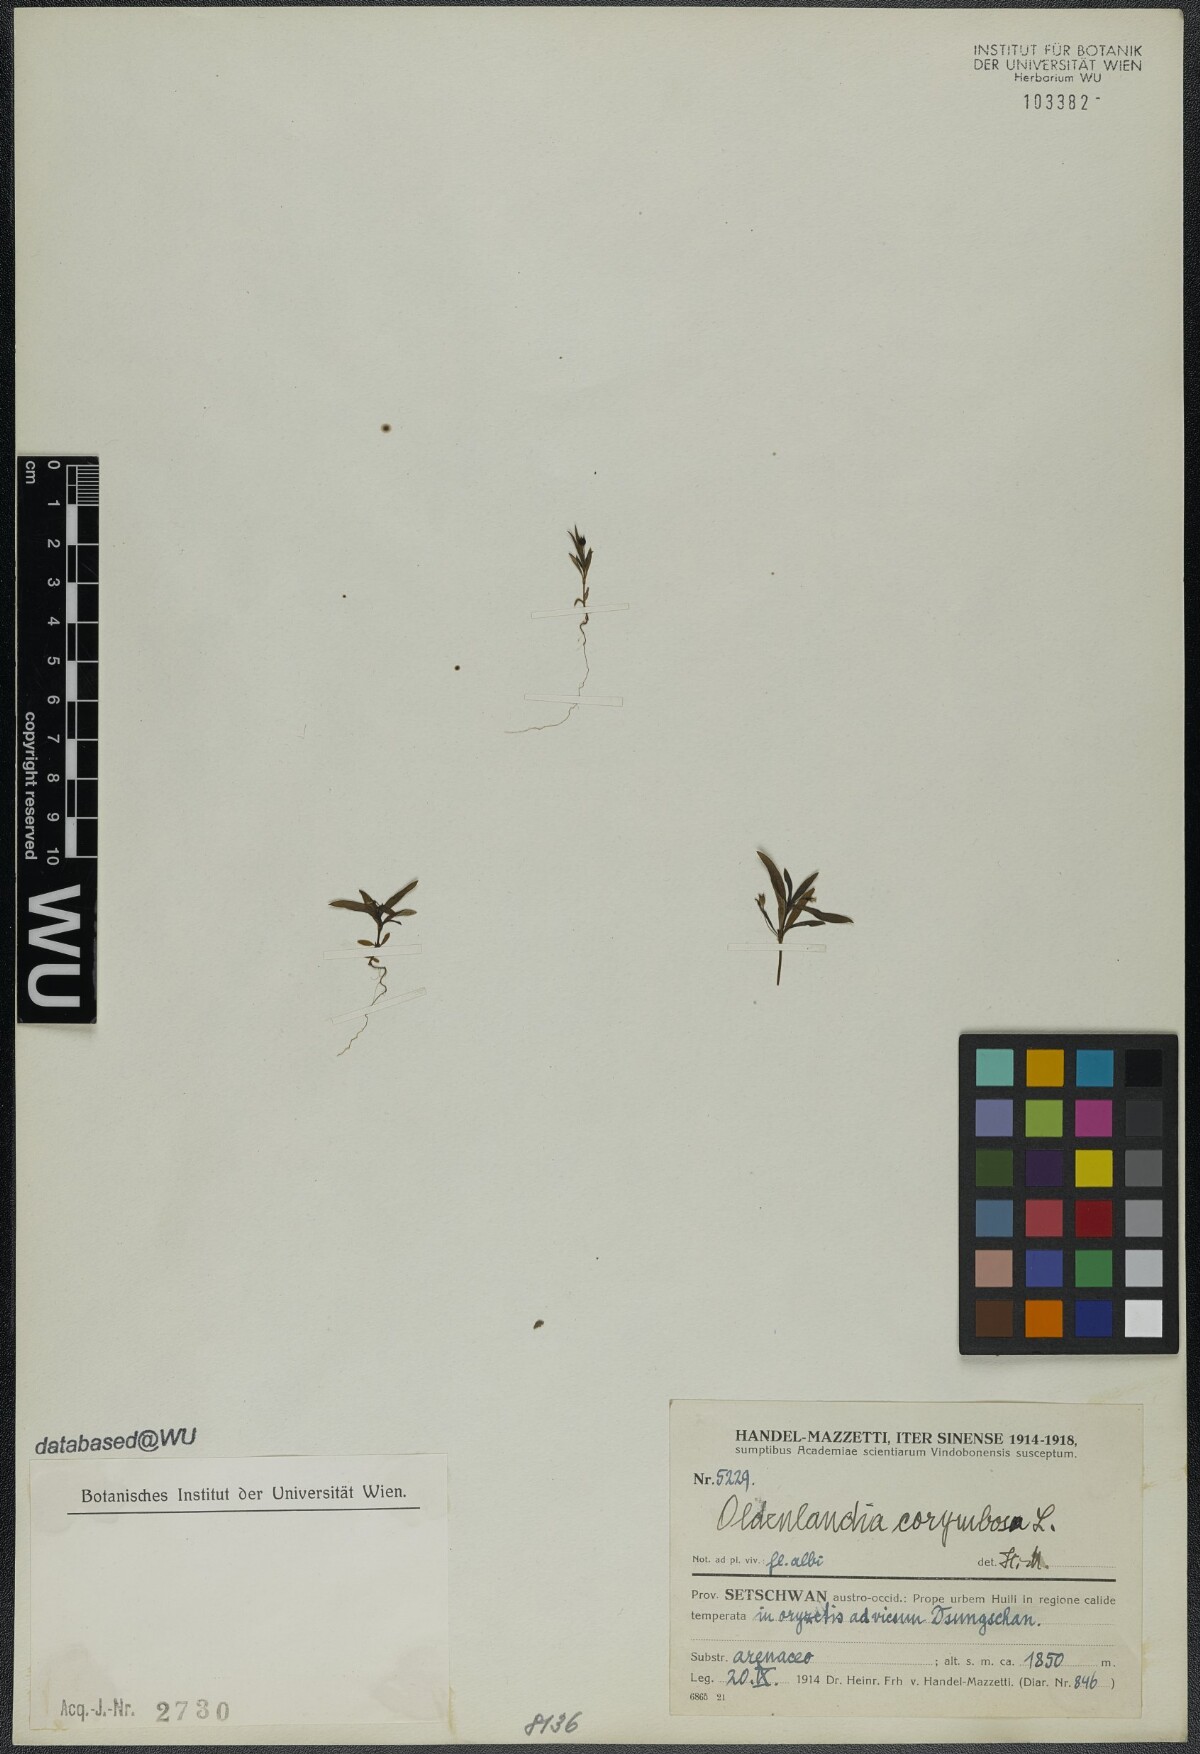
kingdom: Plantae
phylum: Tracheophyta
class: Magnoliopsida
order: Gentianales
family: Rubiaceae
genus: Oldenlandia
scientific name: Oldenlandia corymbosa
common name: Flat-top mille graines
